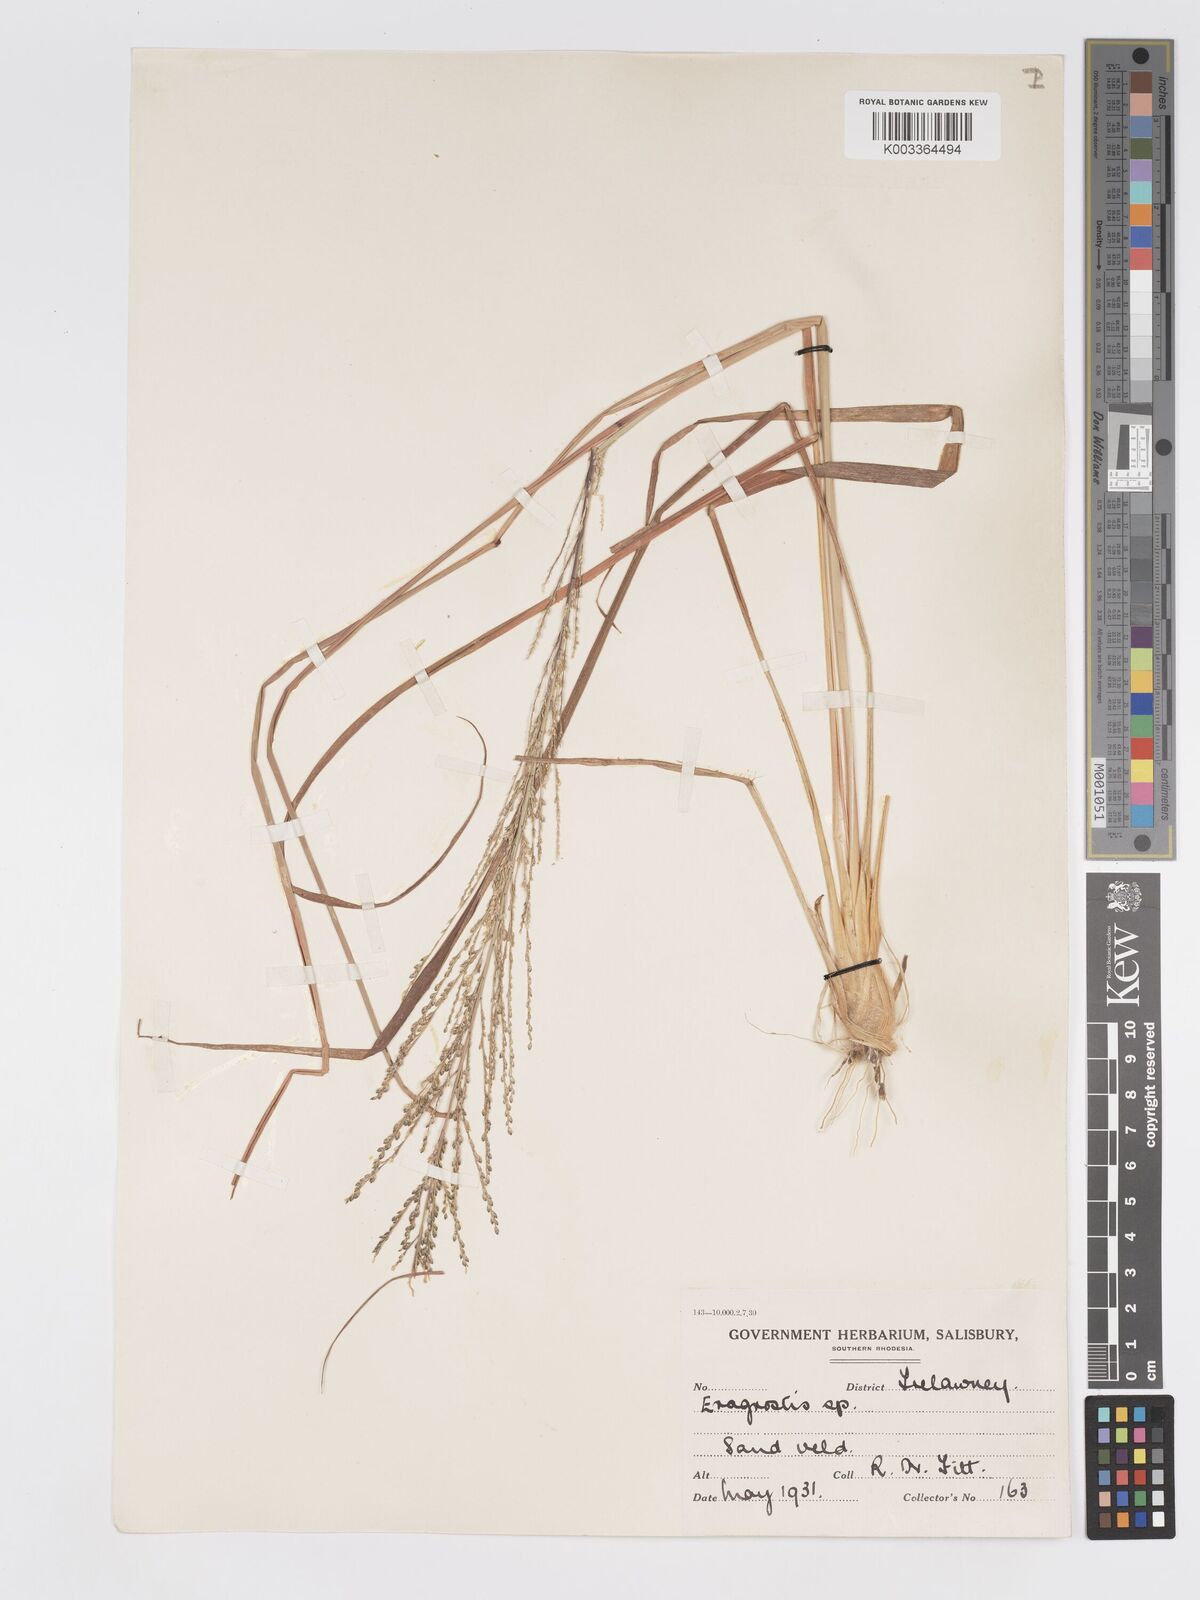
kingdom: Plantae
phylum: Tracheophyta
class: Liliopsida
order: Poales
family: Poaceae
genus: Eragrostis
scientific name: Eragrostis sclerantha
